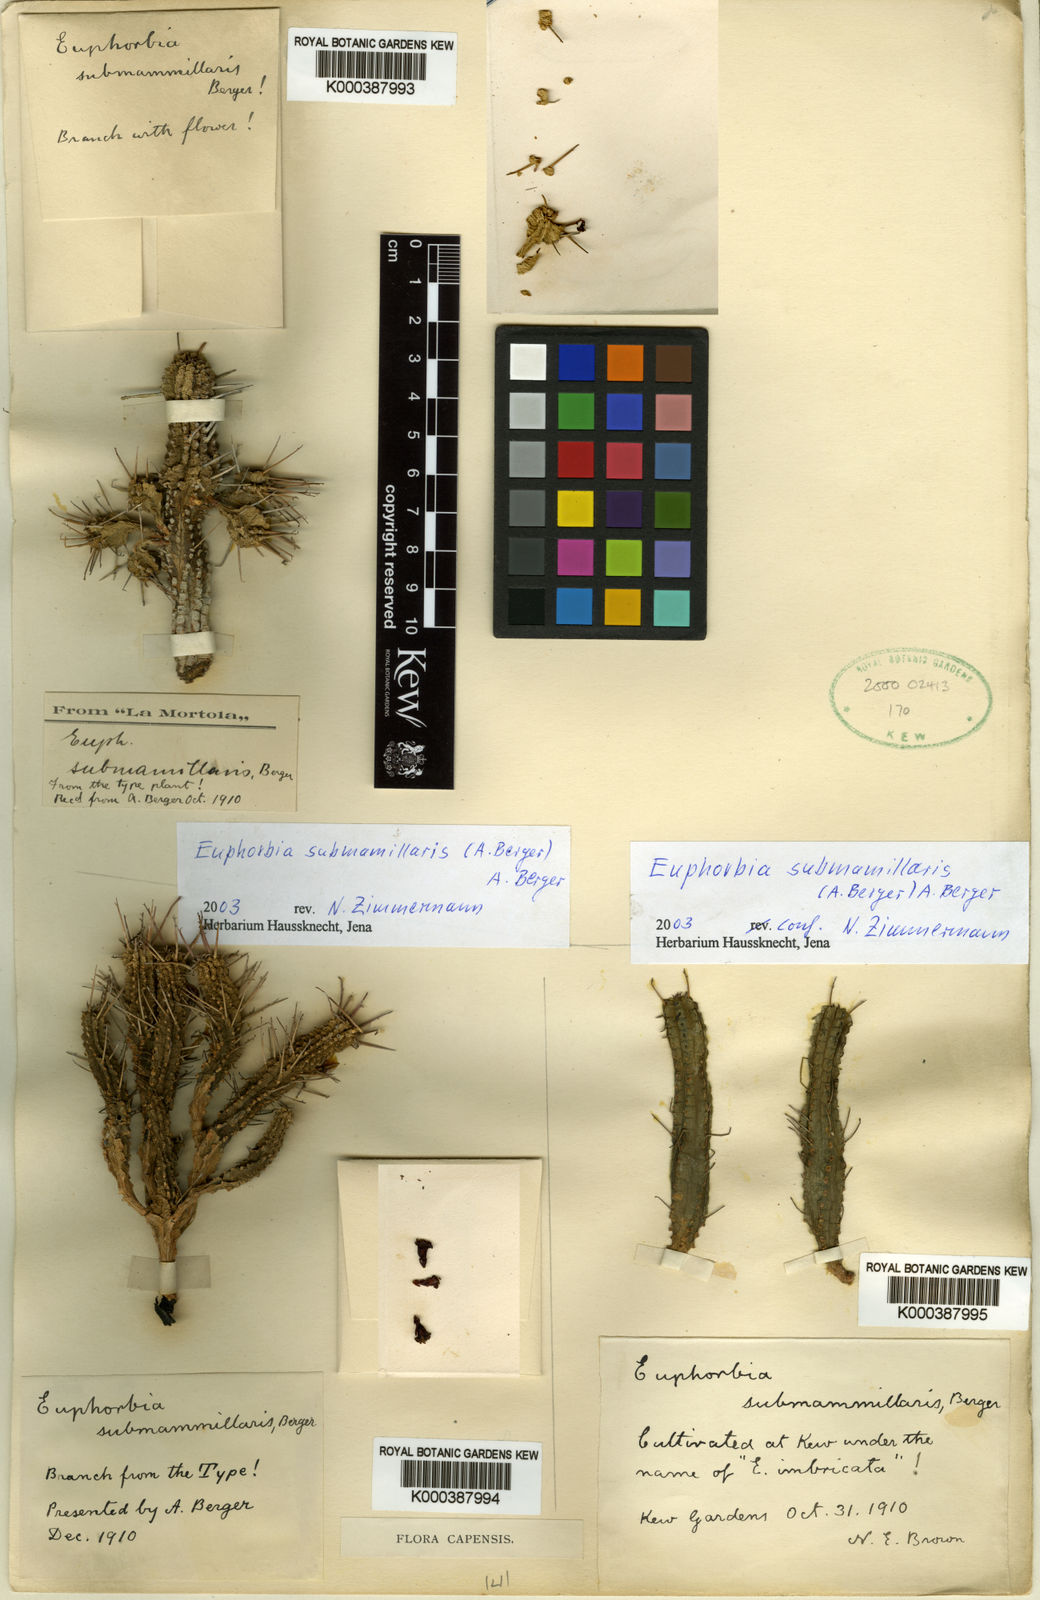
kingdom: Plantae
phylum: Tracheophyta
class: Magnoliopsida
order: Malpighiales
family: Euphorbiaceae
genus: Euphorbia
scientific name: Euphorbia submamillaris
